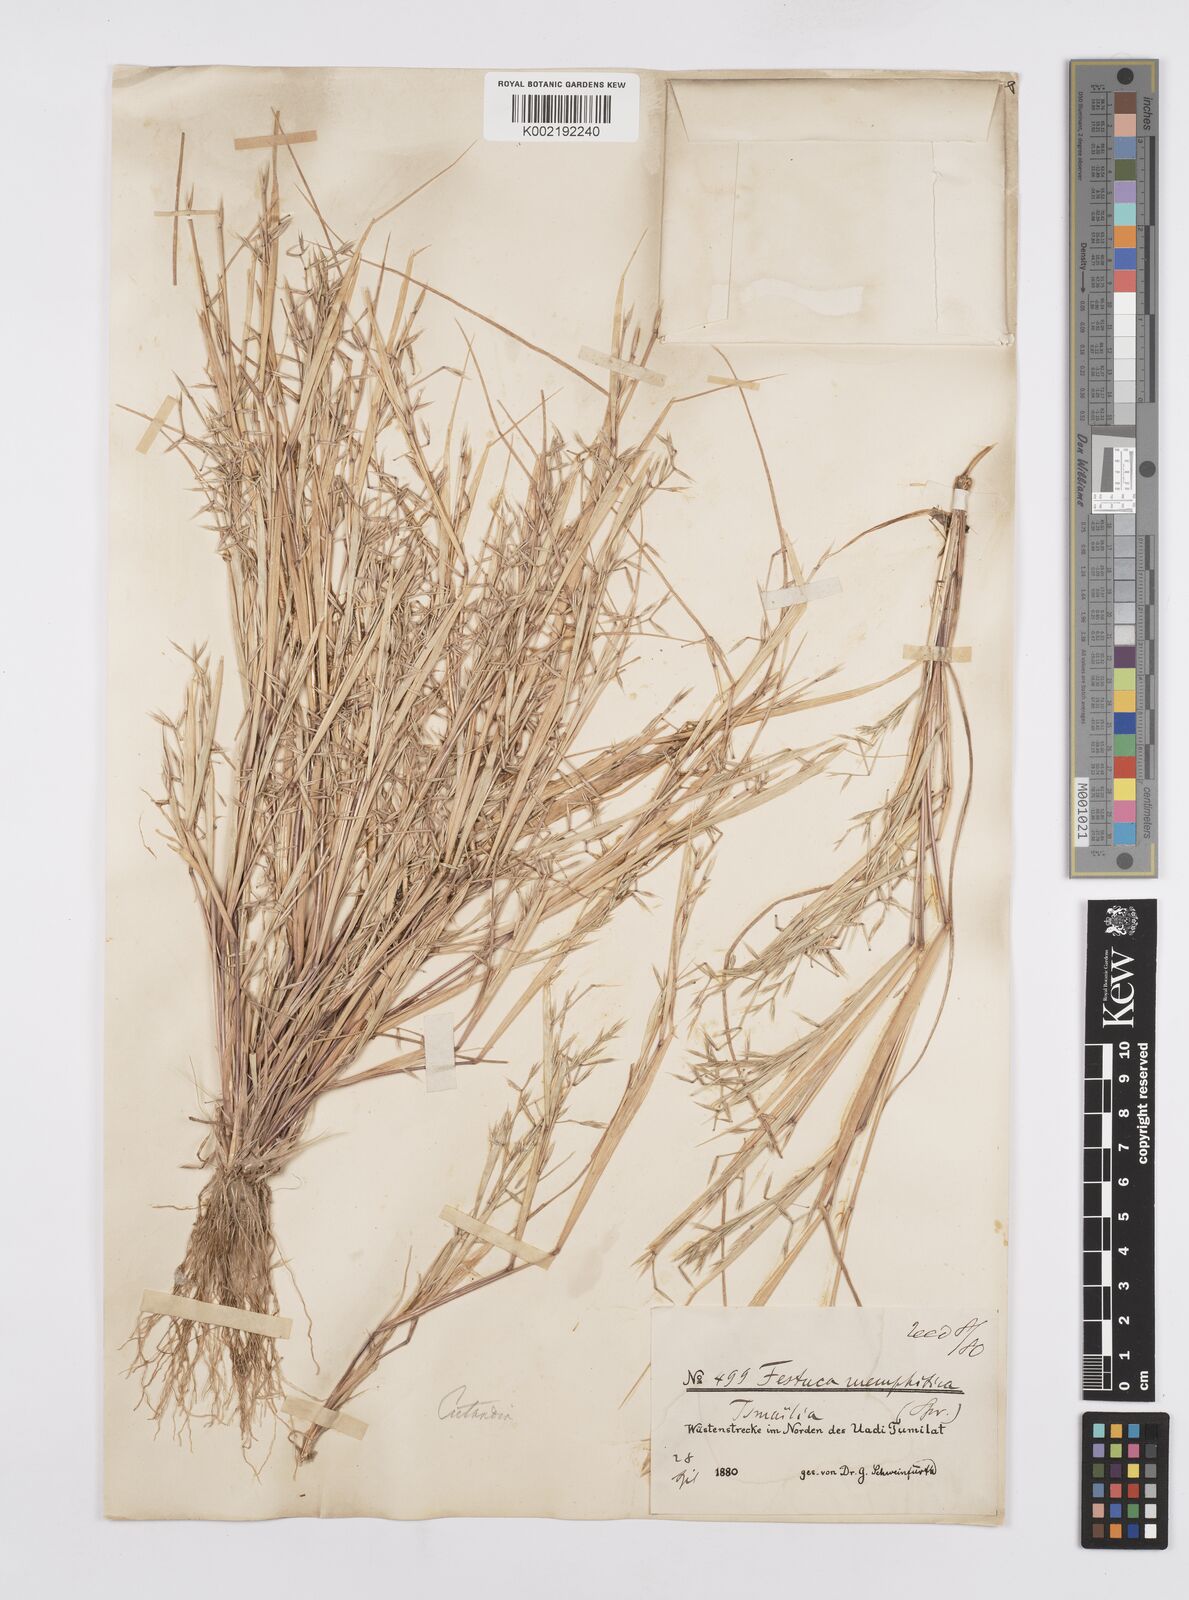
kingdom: Plantae
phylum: Tracheophyta
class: Liliopsida
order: Poales
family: Poaceae
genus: Cutandia
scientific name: Cutandia memphitica
